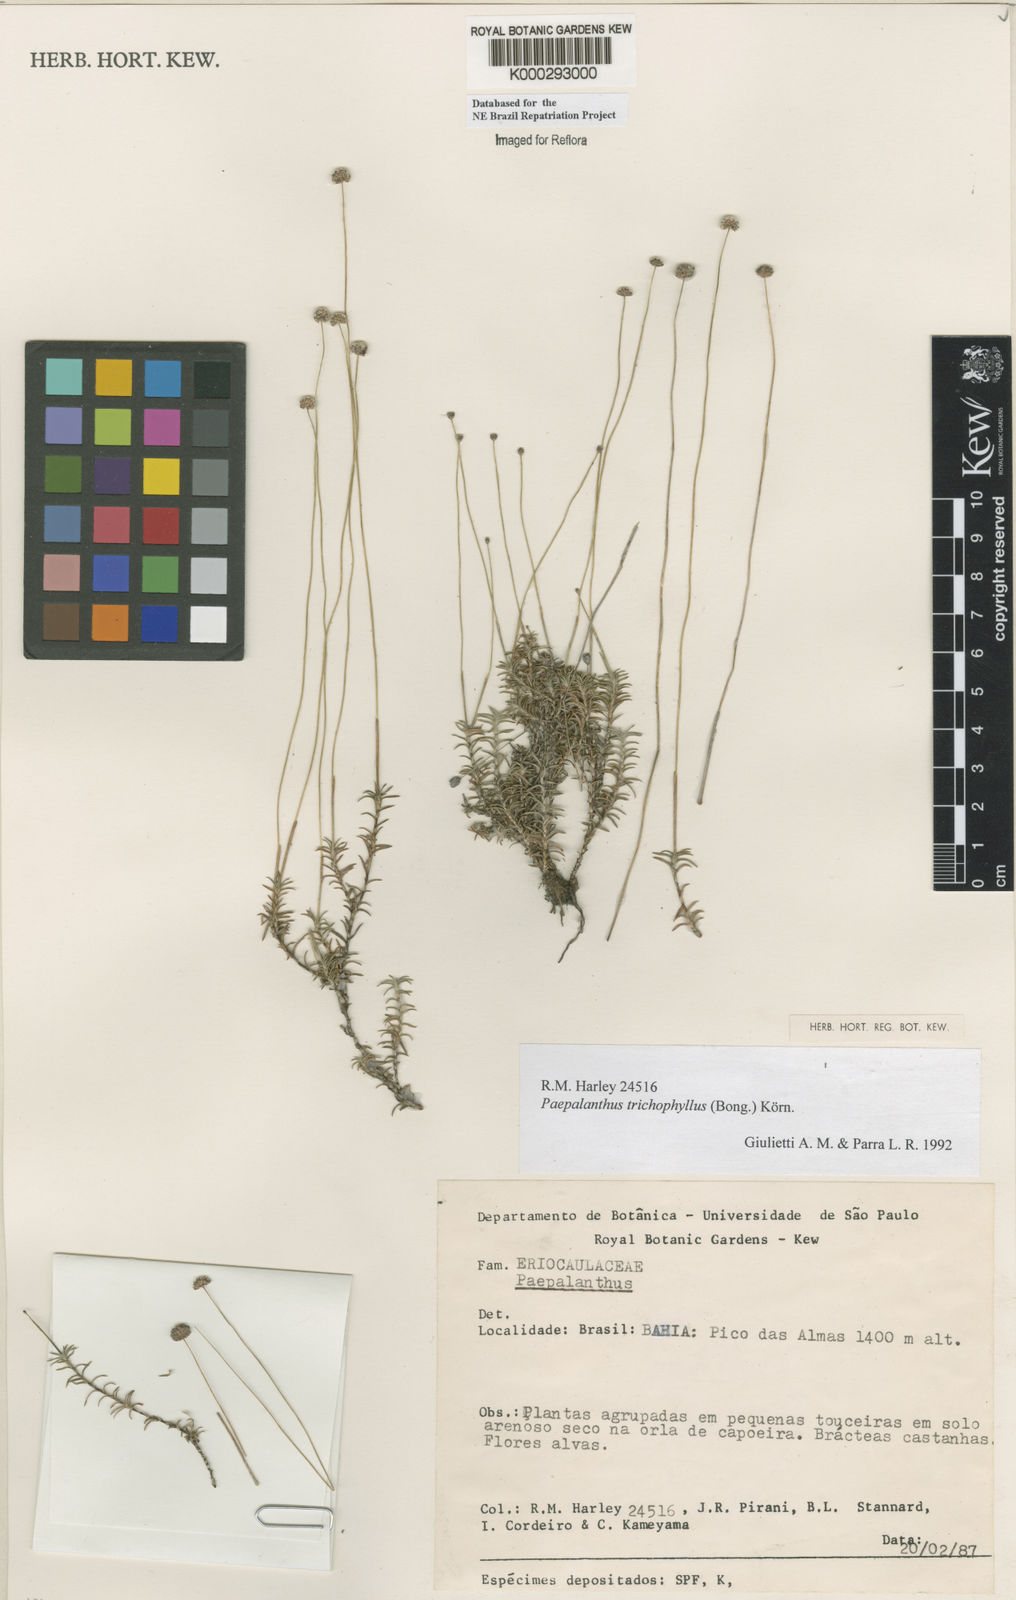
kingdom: Plantae
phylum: Tracheophyta
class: Liliopsida
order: Poales
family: Eriocaulaceae
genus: Paepalanthus
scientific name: Paepalanthus
